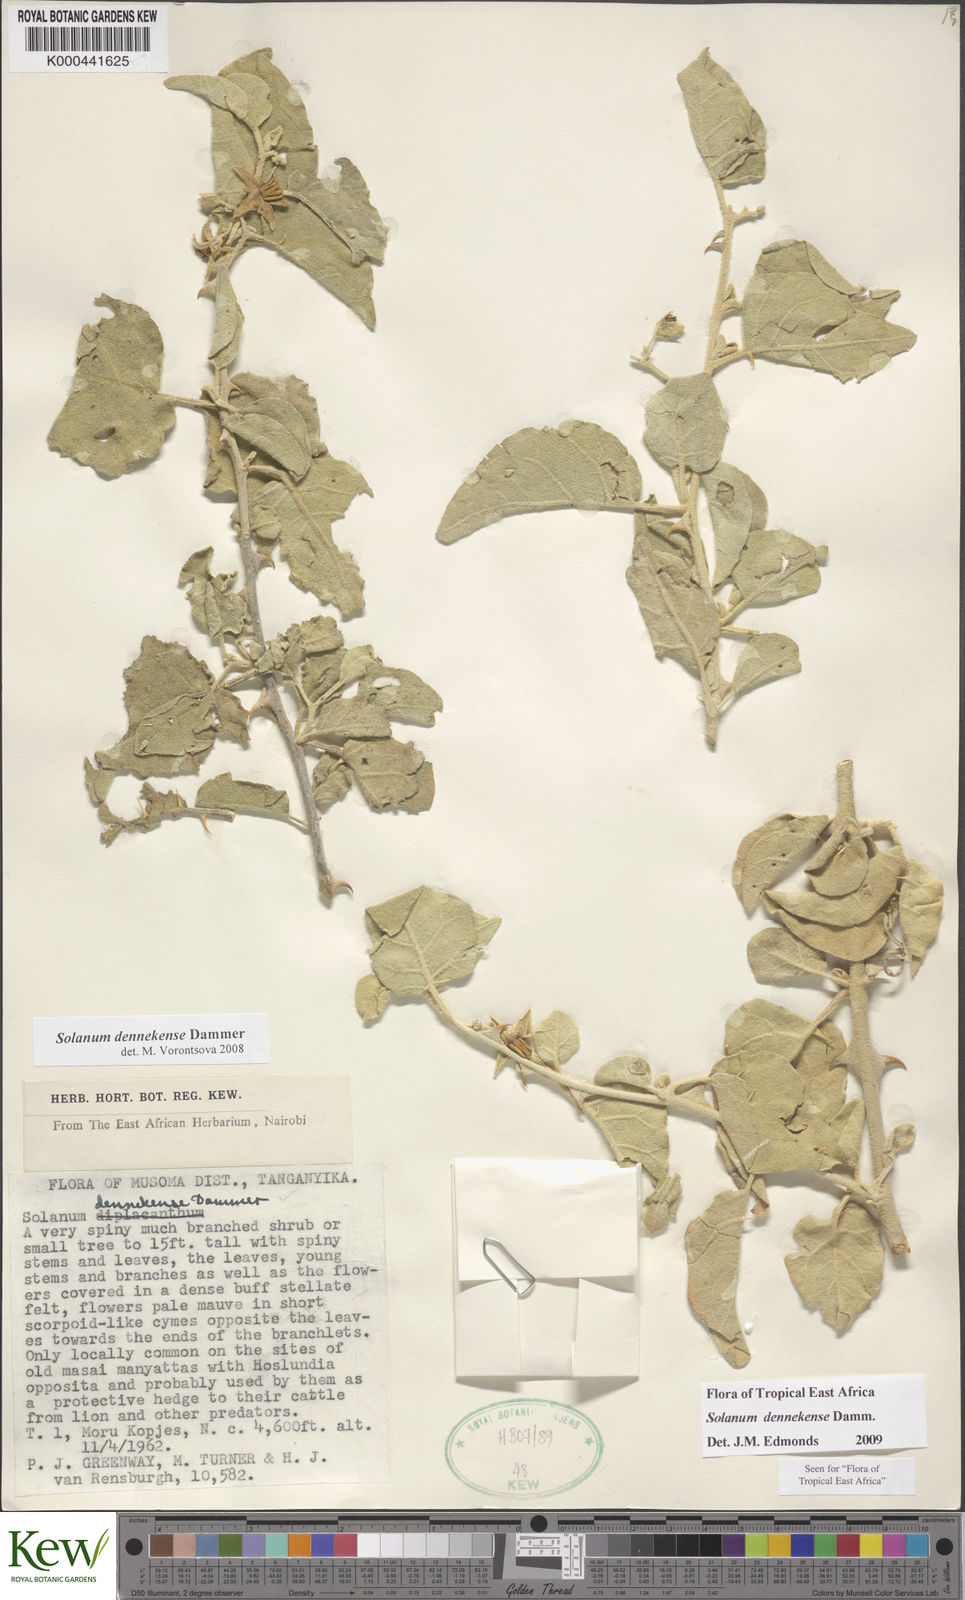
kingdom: Plantae
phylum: Tracheophyta
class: Magnoliopsida
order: Solanales
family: Solanaceae
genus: Solanum
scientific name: Solanum dennekense
